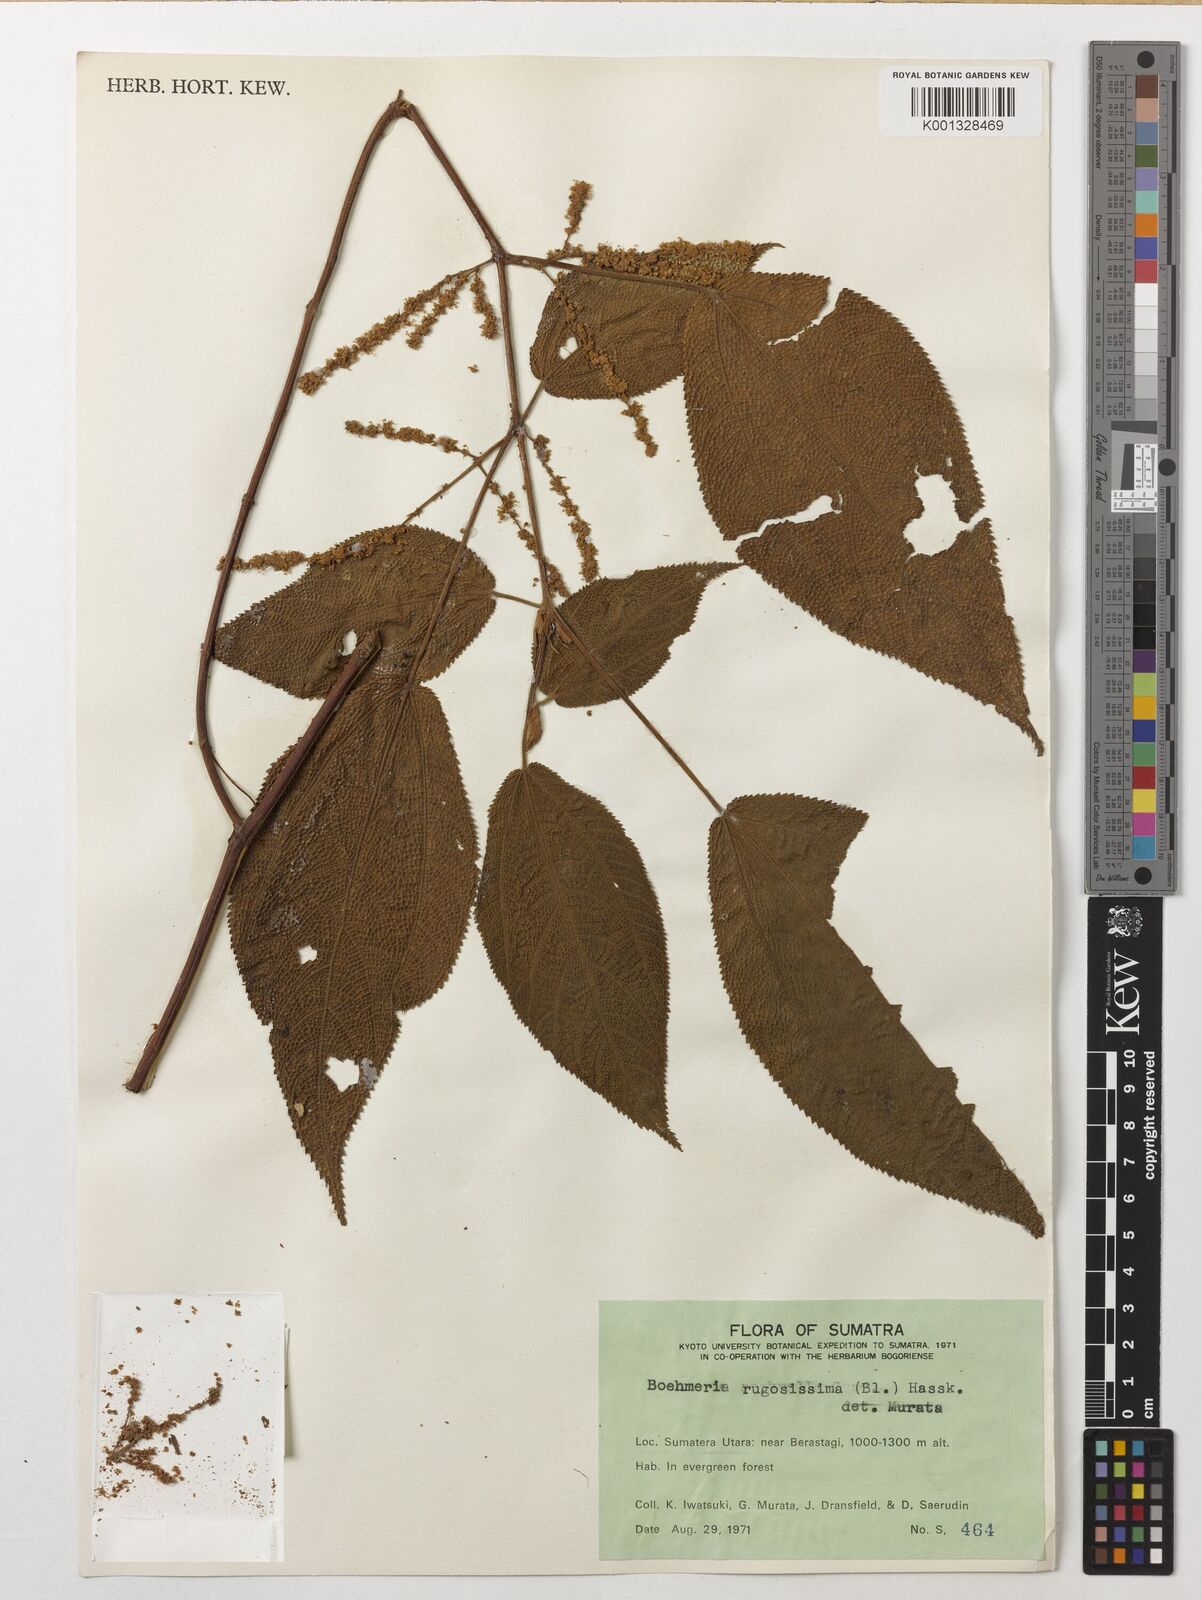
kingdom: Plantae
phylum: Tracheophyta
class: Magnoliopsida
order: Rosales
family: Urticaceae
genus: Boehmeria
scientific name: Boehmeria rugosissima
